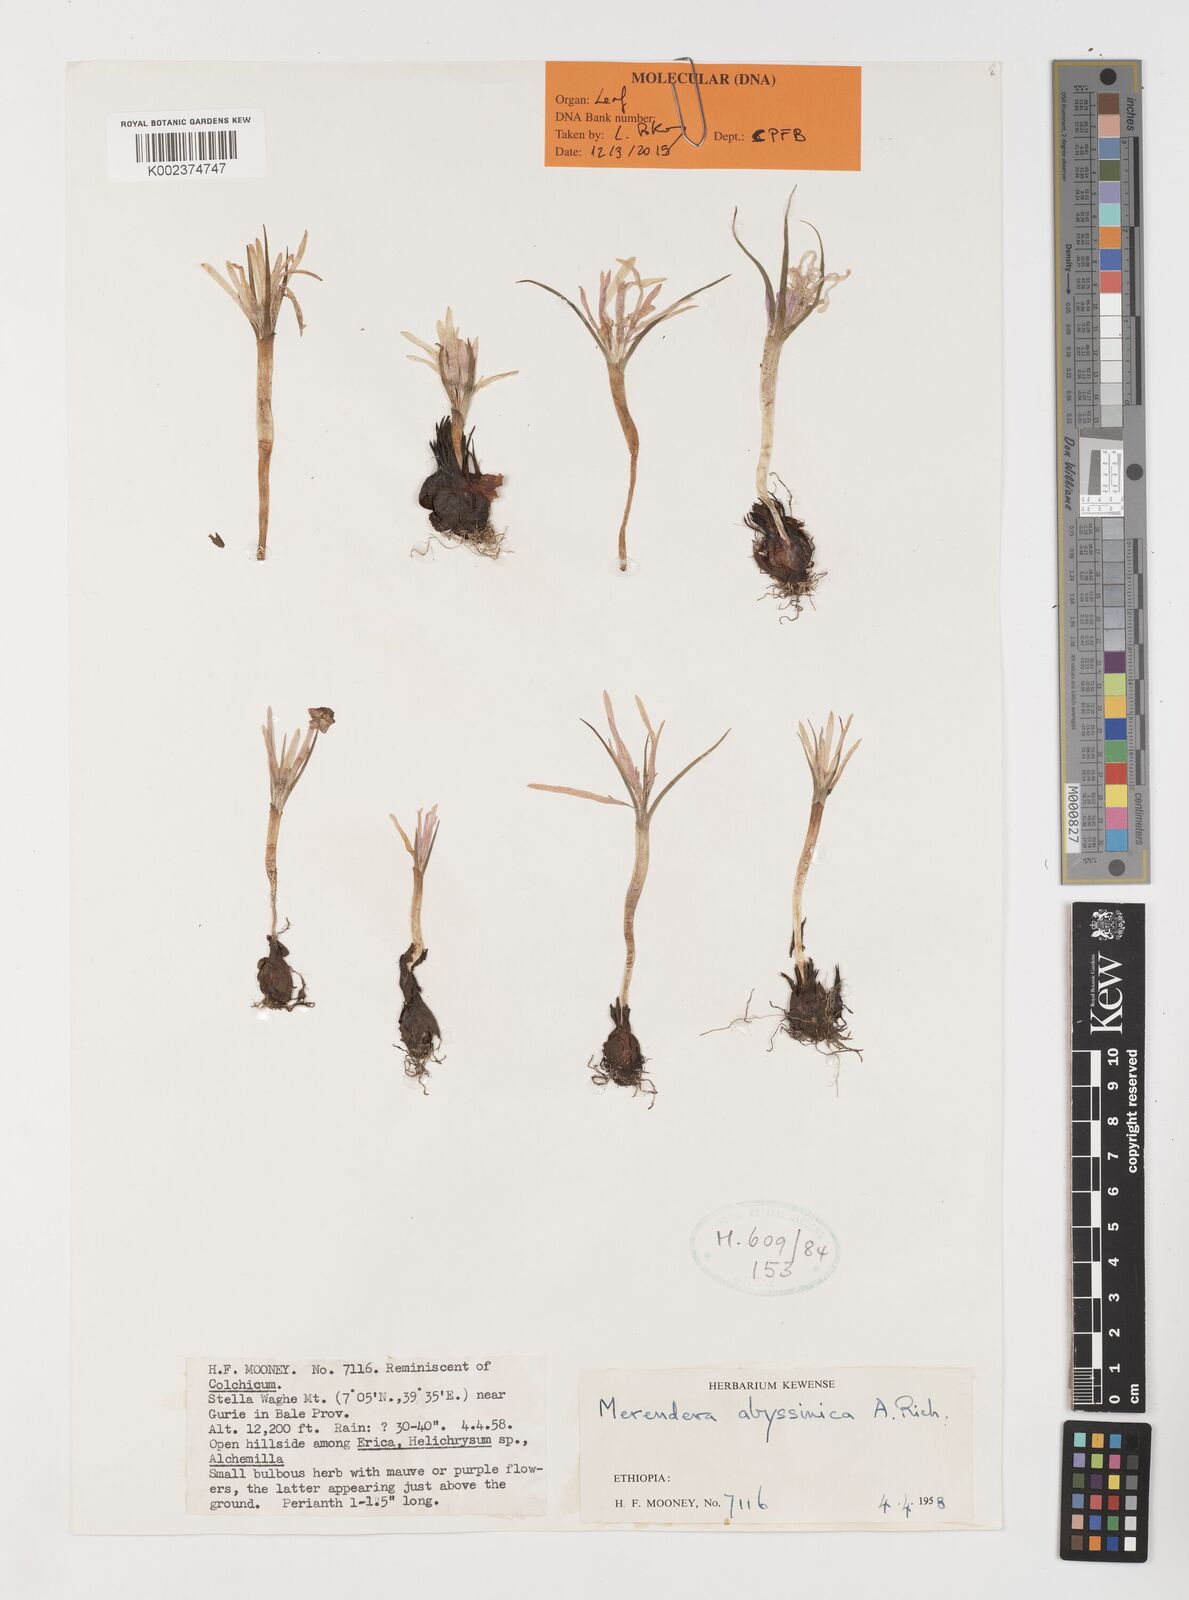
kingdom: Plantae
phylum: Tracheophyta
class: Liliopsida
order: Liliales
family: Colchicaceae
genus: Colchicum
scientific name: Colchicum
